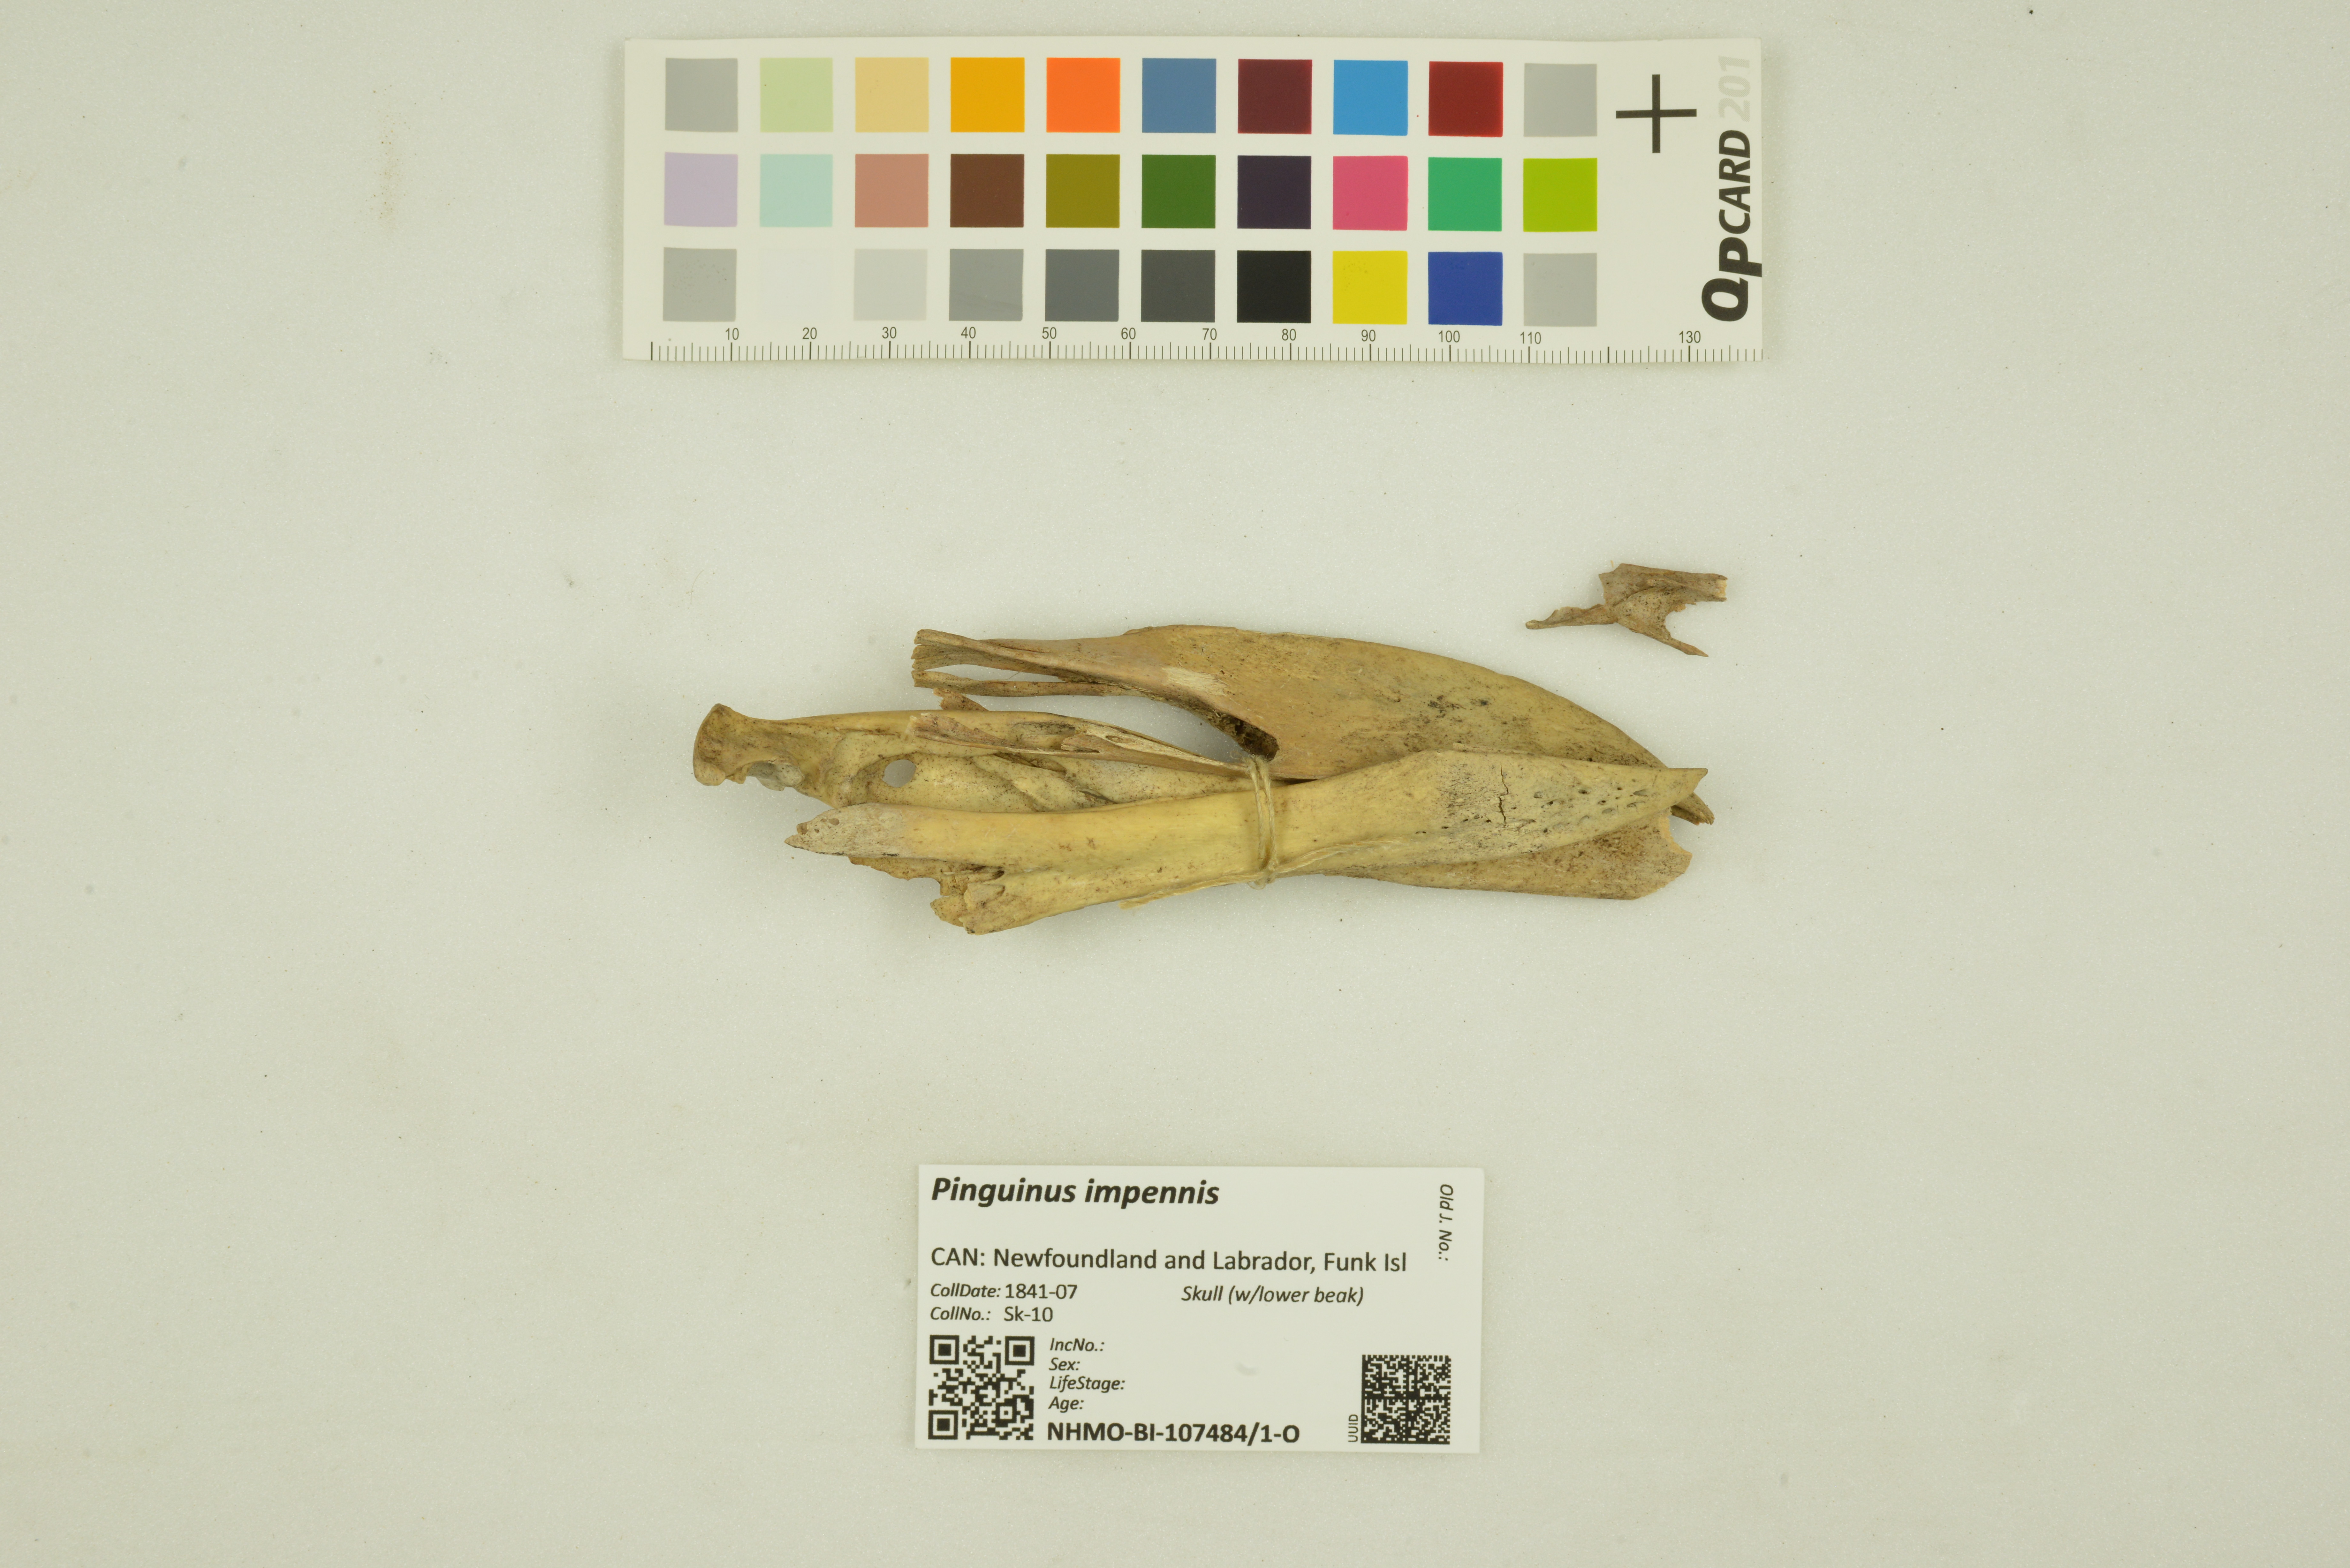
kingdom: Animalia
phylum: Chordata
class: Aves
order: Charadriiformes
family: Alcidae
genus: Pinguinus
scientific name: Pinguinus impennis
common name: Great auk
